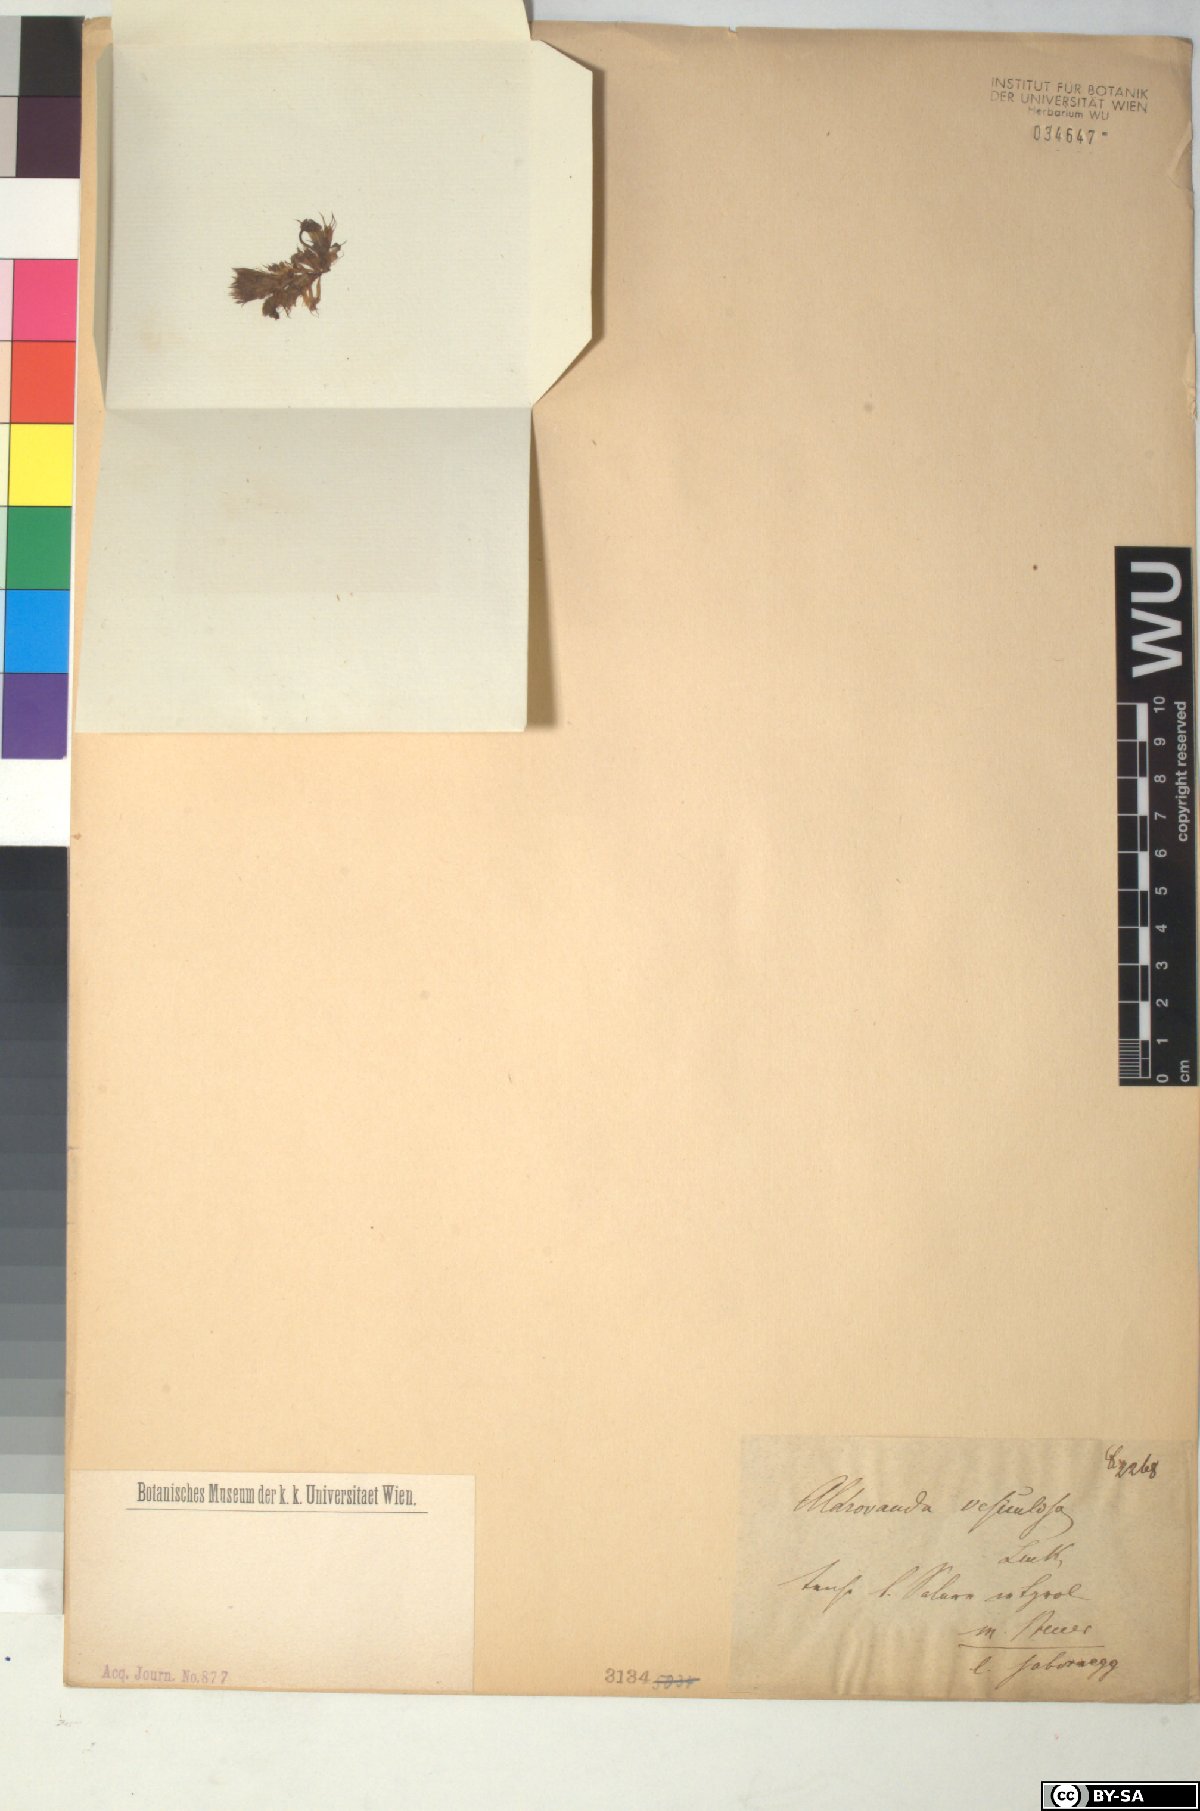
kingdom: Plantae
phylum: Tracheophyta
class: Magnoliopsida
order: Caryophyllales
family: Droseraceae
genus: Aldrovanda
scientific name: Aldrovanda vesiculosa
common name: Waterwheel plant
